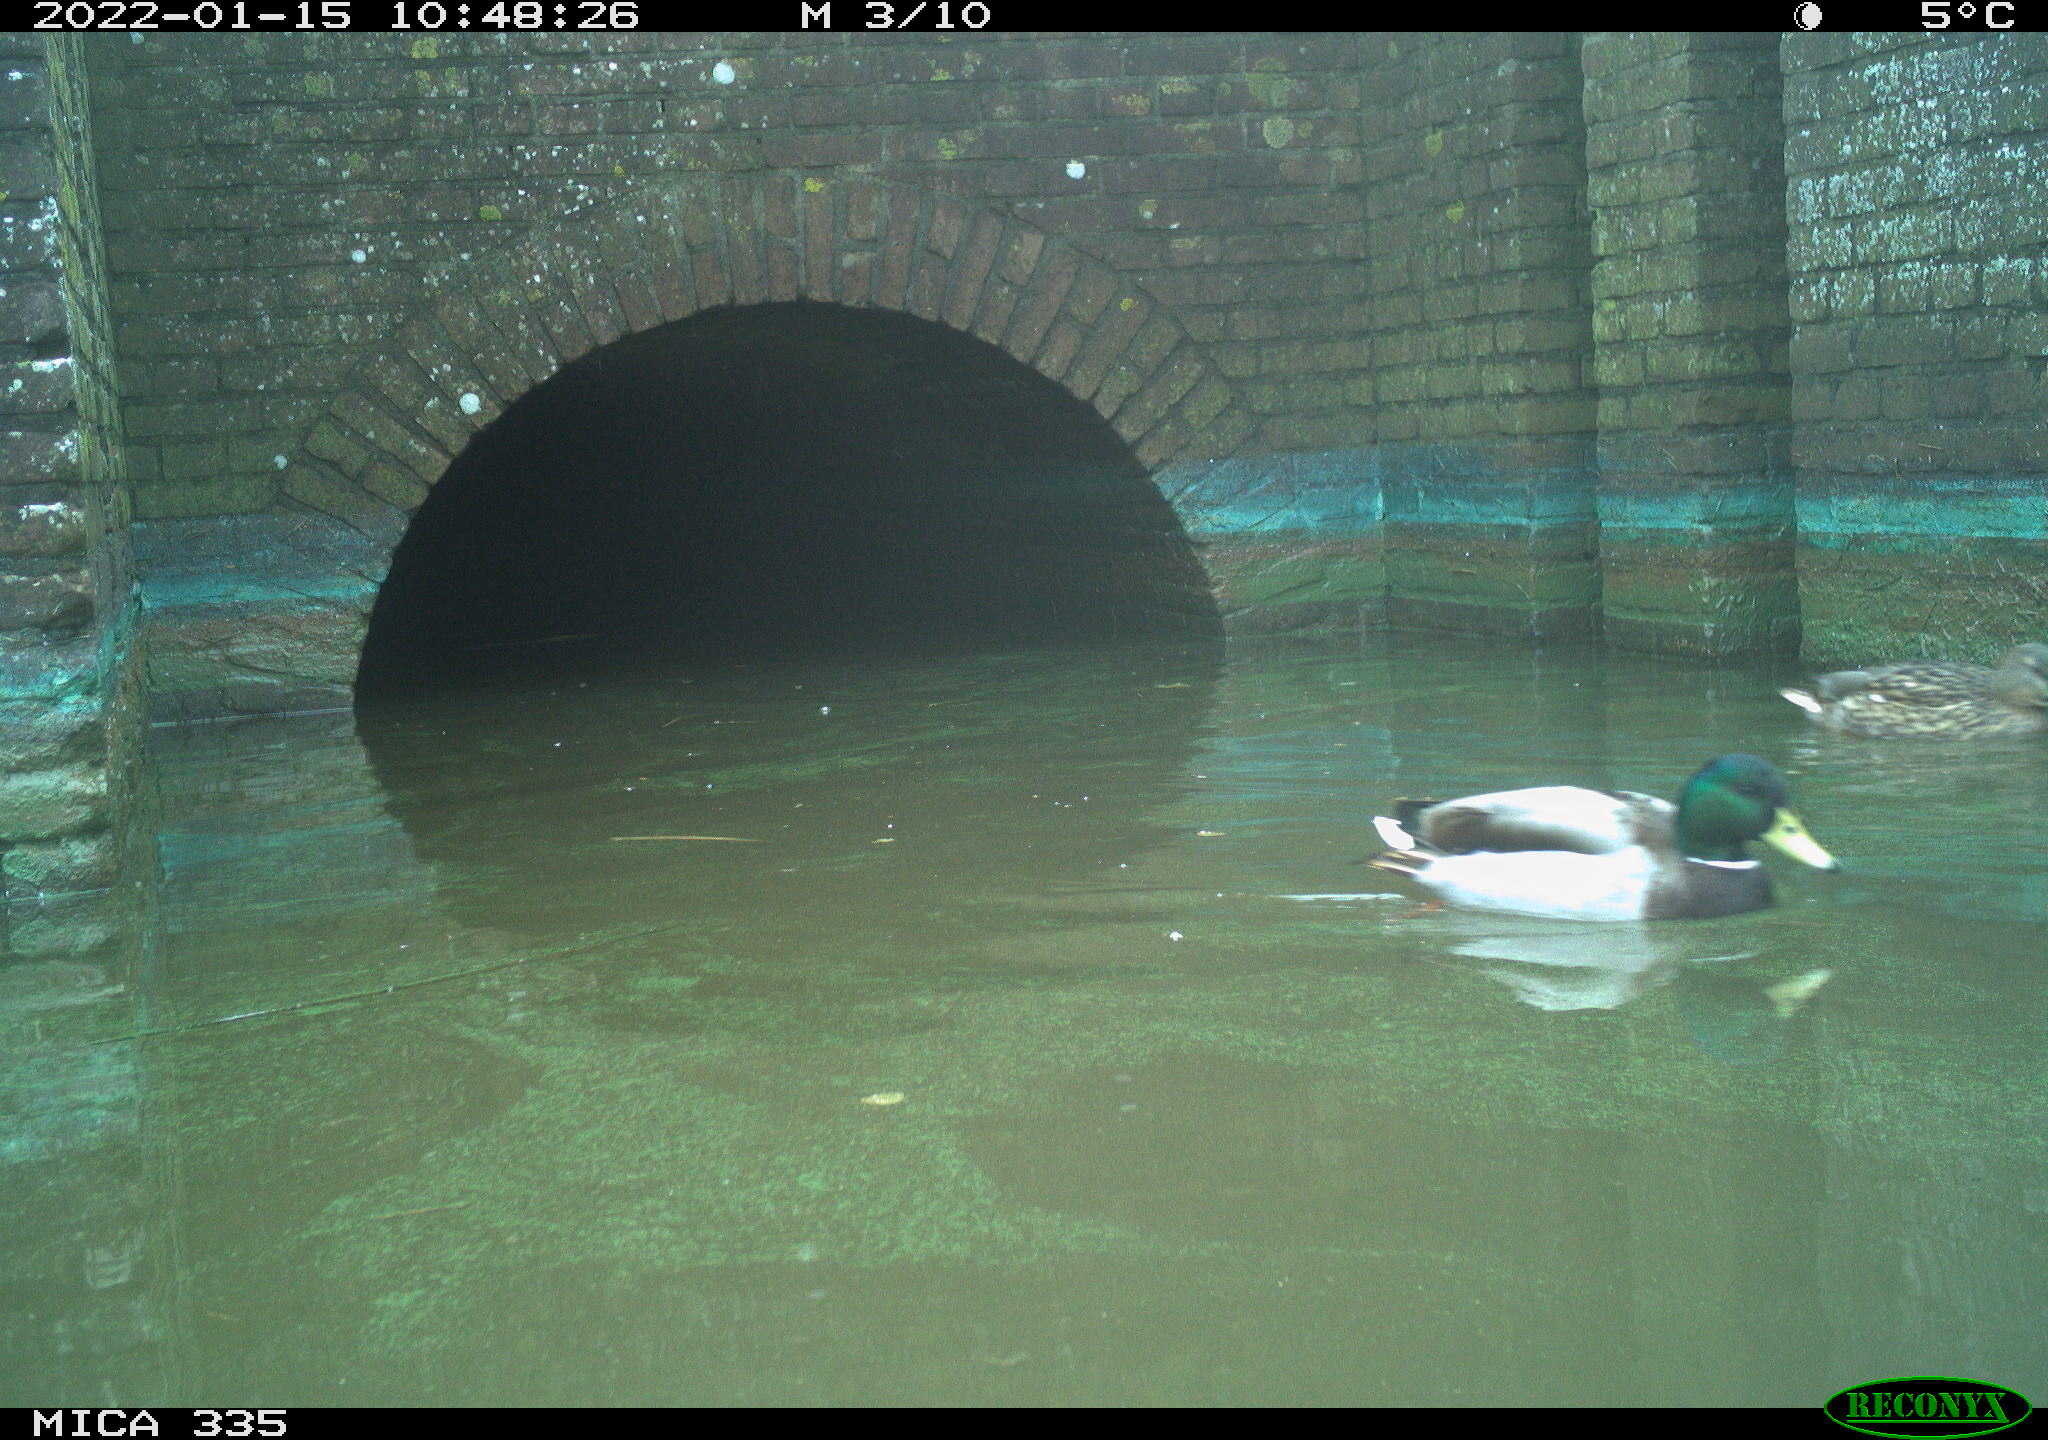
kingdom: Animalia
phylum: Chordata
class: Aves
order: Anseriformes
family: Anatidae
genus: Anas
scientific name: Anas platyrhynchos
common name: Mallard
